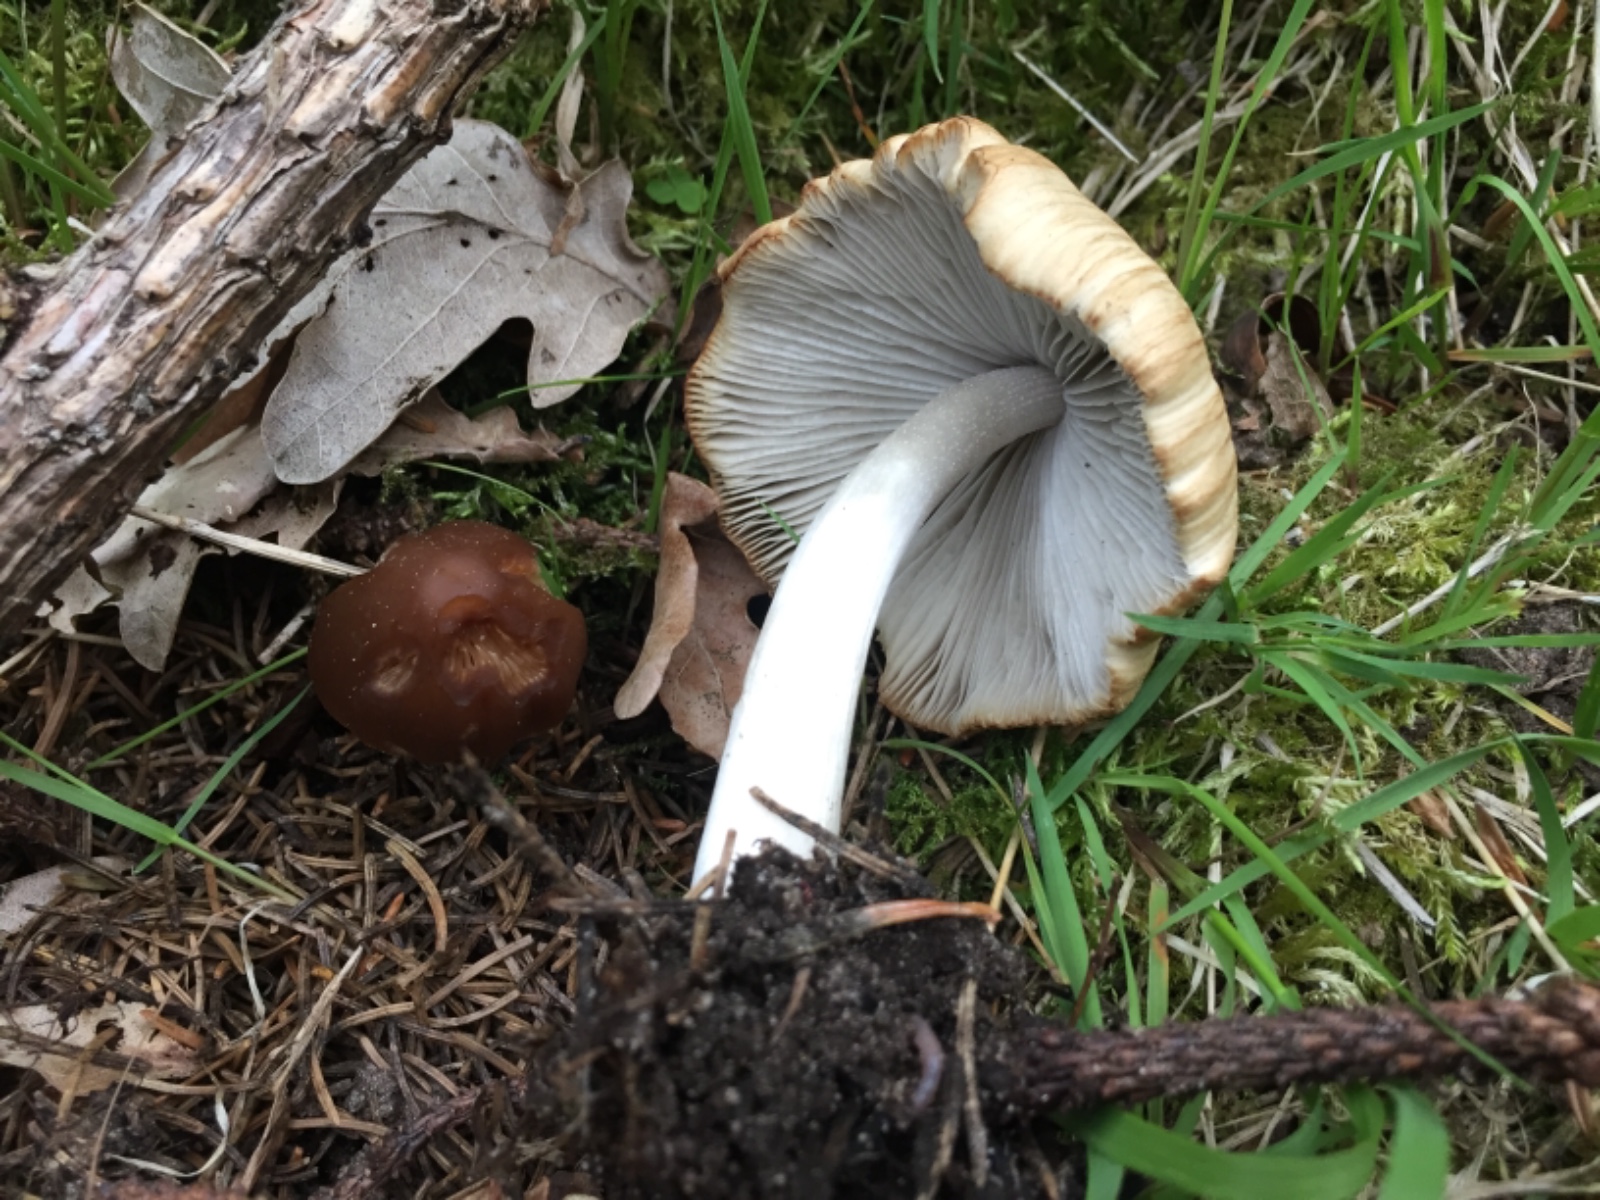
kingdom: Fungi
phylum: Basidiomycota
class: Agaricomycetes
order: Agaricales
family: Psathyrellaceae
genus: Psathyrella
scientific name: Psathyrella fusca
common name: gråbladet mørkhat
